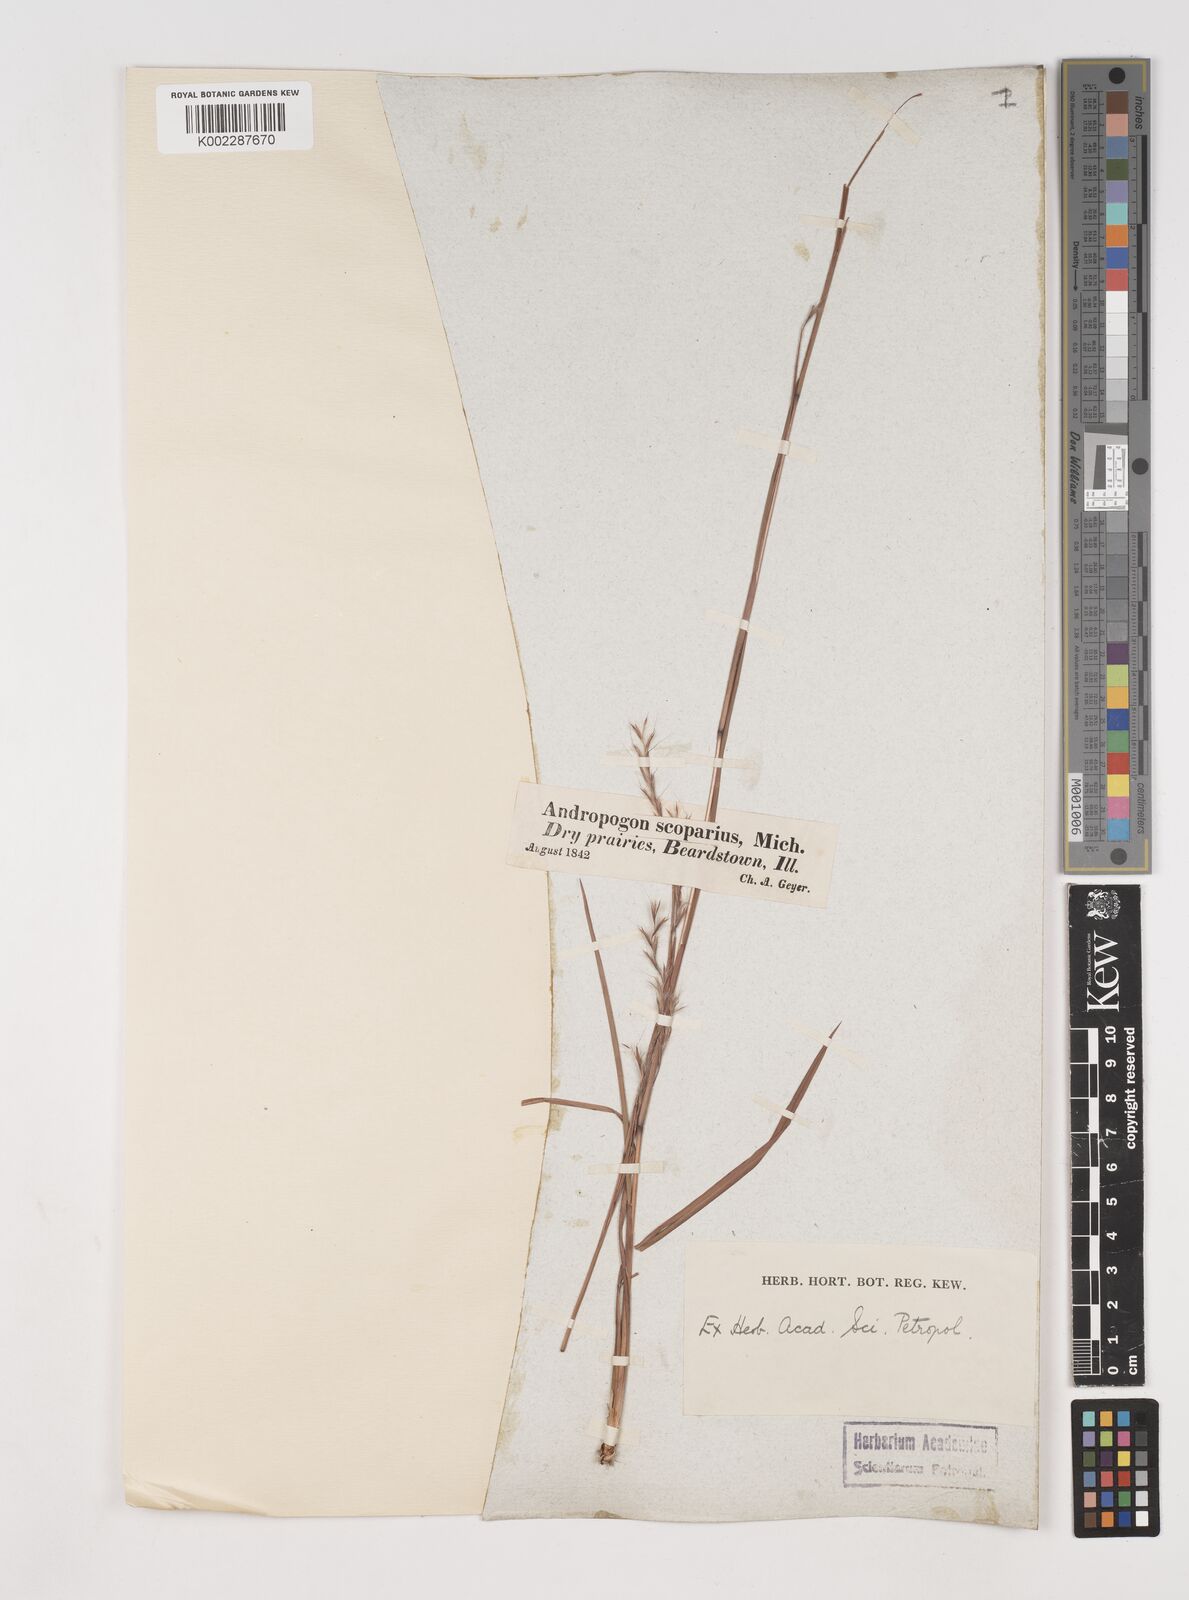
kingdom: Plantae
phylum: Tracheophyta
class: Liliopsida
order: Poales
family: Poaceae
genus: Schizachyrium
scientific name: Schizachyrium scoparium
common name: Little bluestem
